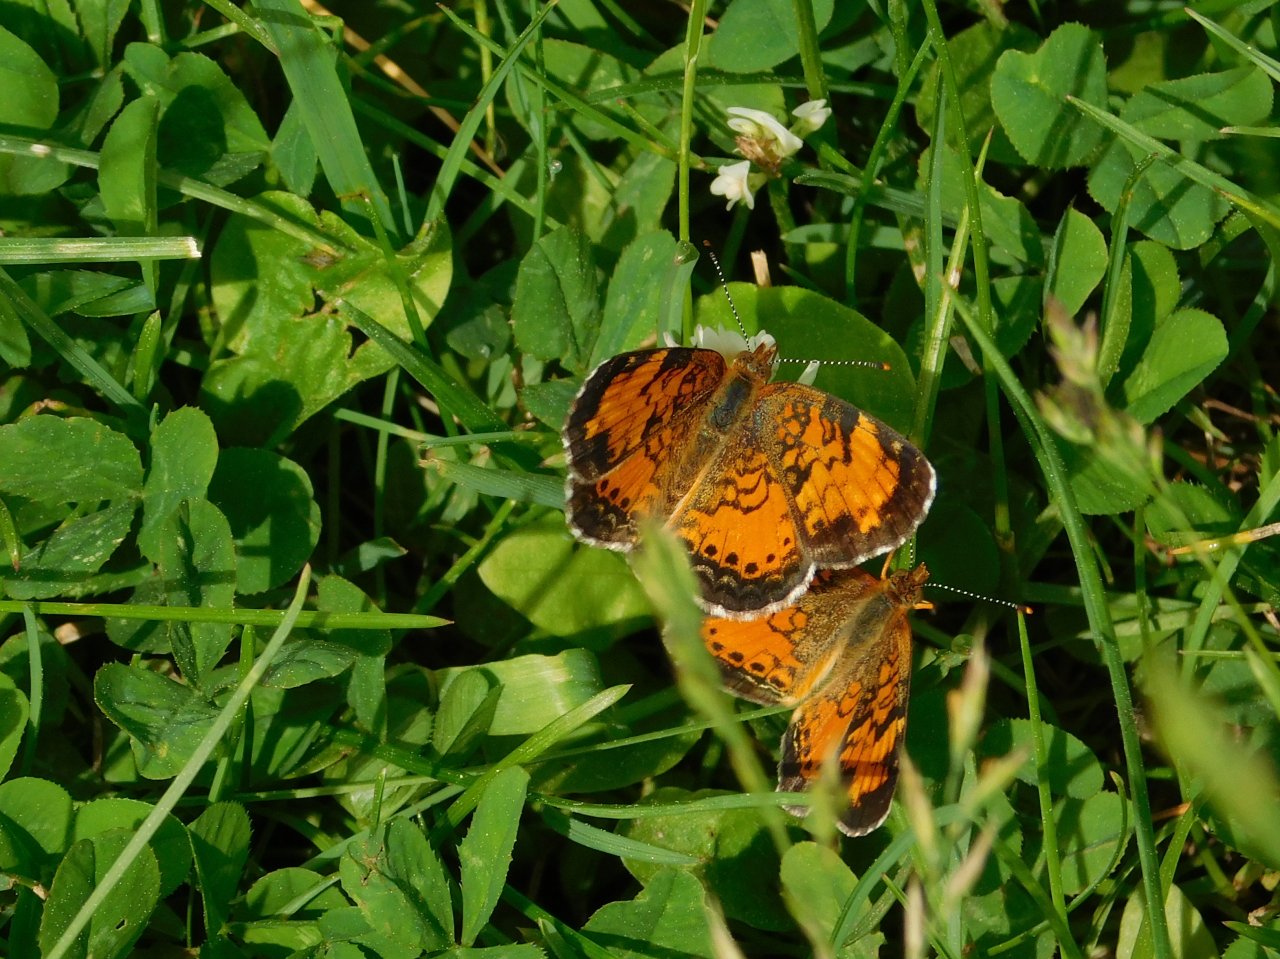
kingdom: Animalia
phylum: Arthropoda
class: Insecta
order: Lepidoptera
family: Nymphalidae
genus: Phyciodes
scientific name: Phyciodes tharos
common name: Northern Crescent
